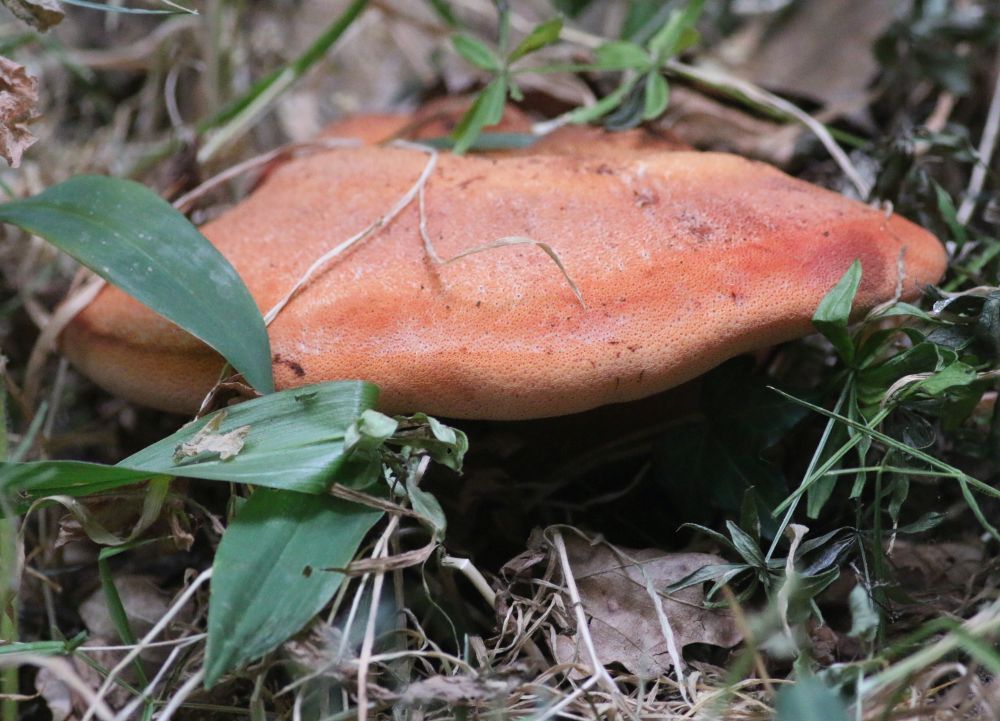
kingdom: Fungi
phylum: Basidiomycota
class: Agaricomycetes
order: Agaricales
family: Fistulinaceae
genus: Fistulina
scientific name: Fistulina hepatica
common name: oksetunge
